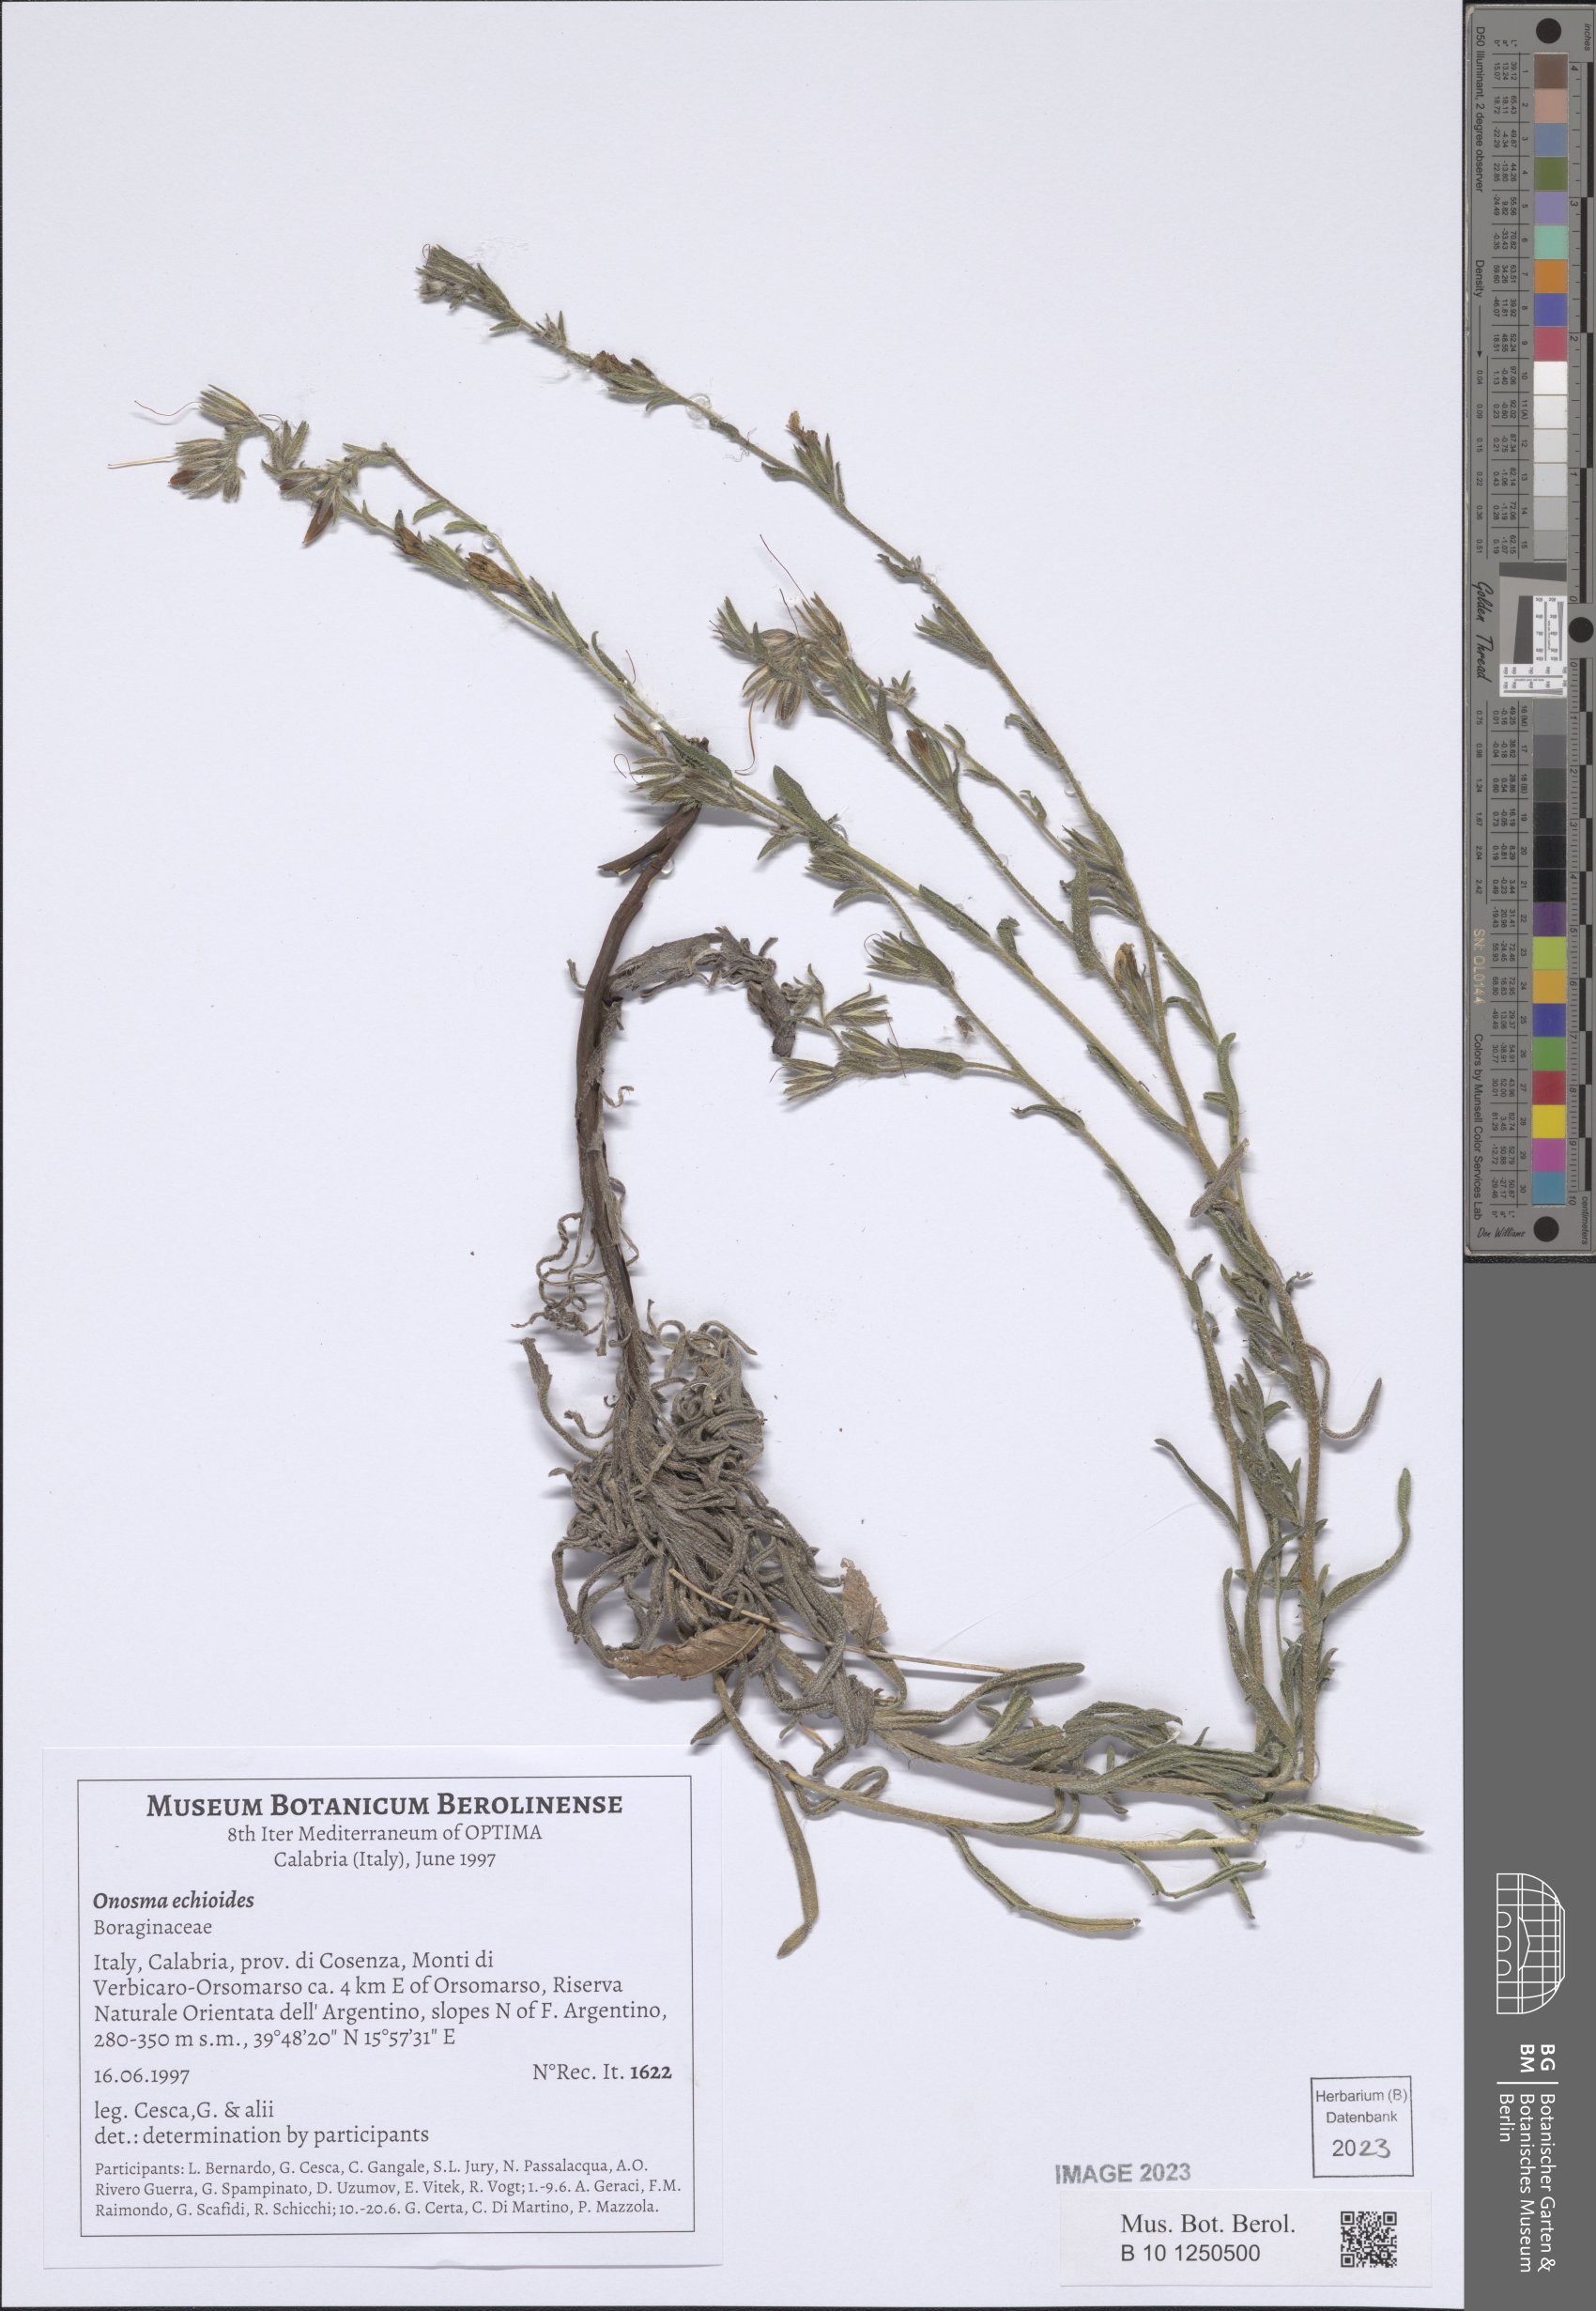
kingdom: Plantae
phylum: Tracheophyta
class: Magnoliopsida
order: Boraginales
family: Boraginaceae
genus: Onosma
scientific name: Onosma echioides
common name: Goldendrop
